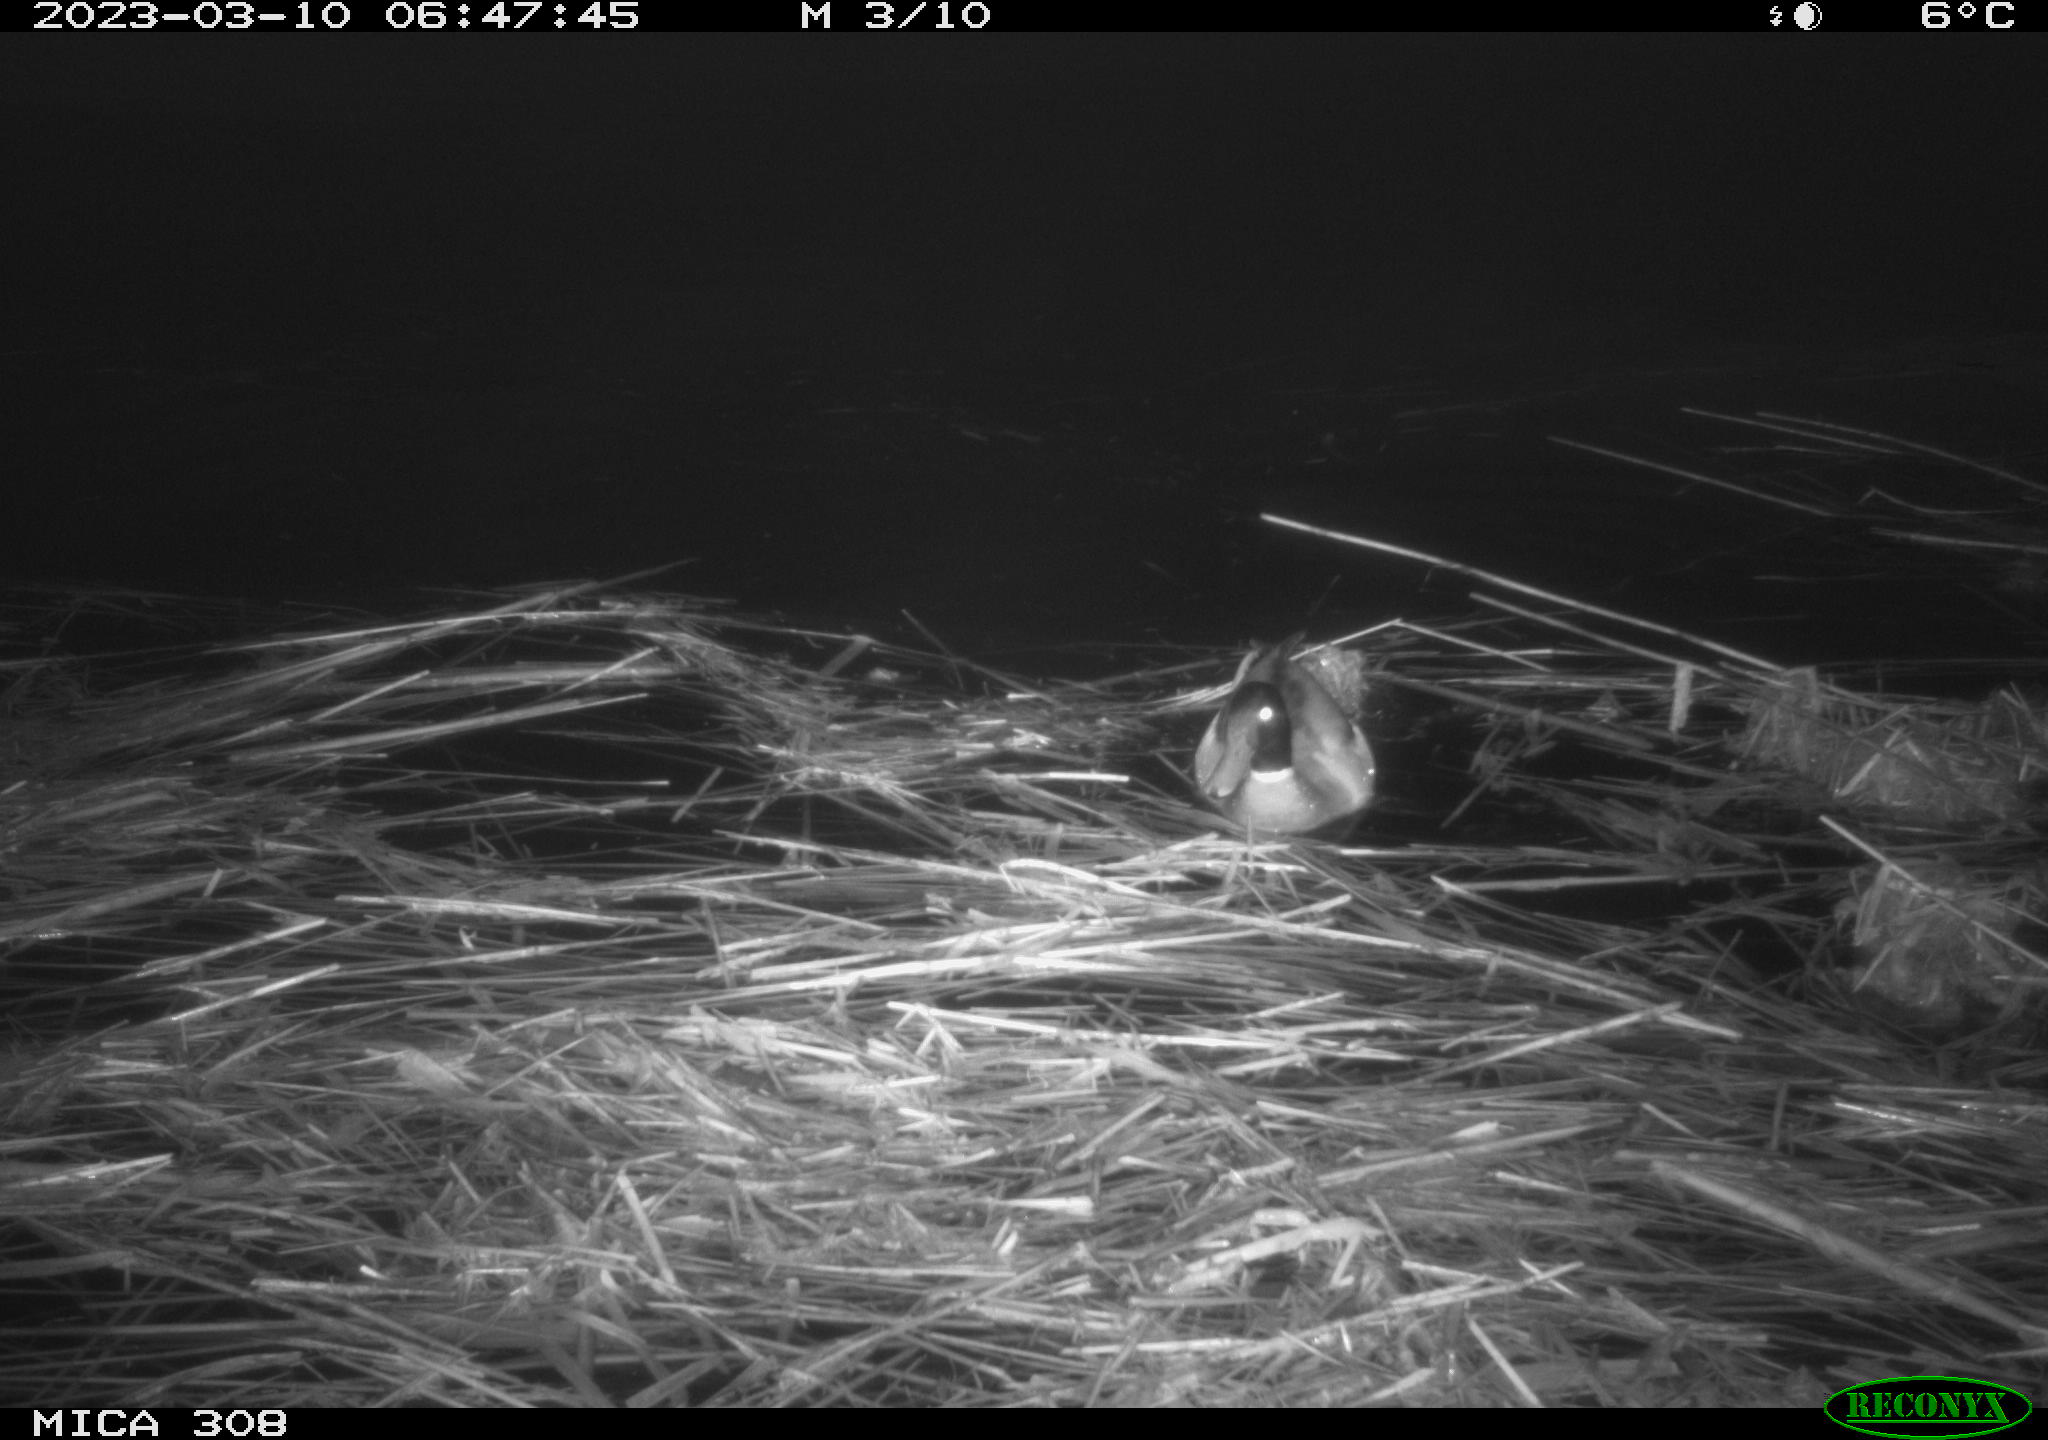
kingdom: Animalia
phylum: Chordata
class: Aves
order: Anseriformes
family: Anatidae
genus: Anas
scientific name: Anas
